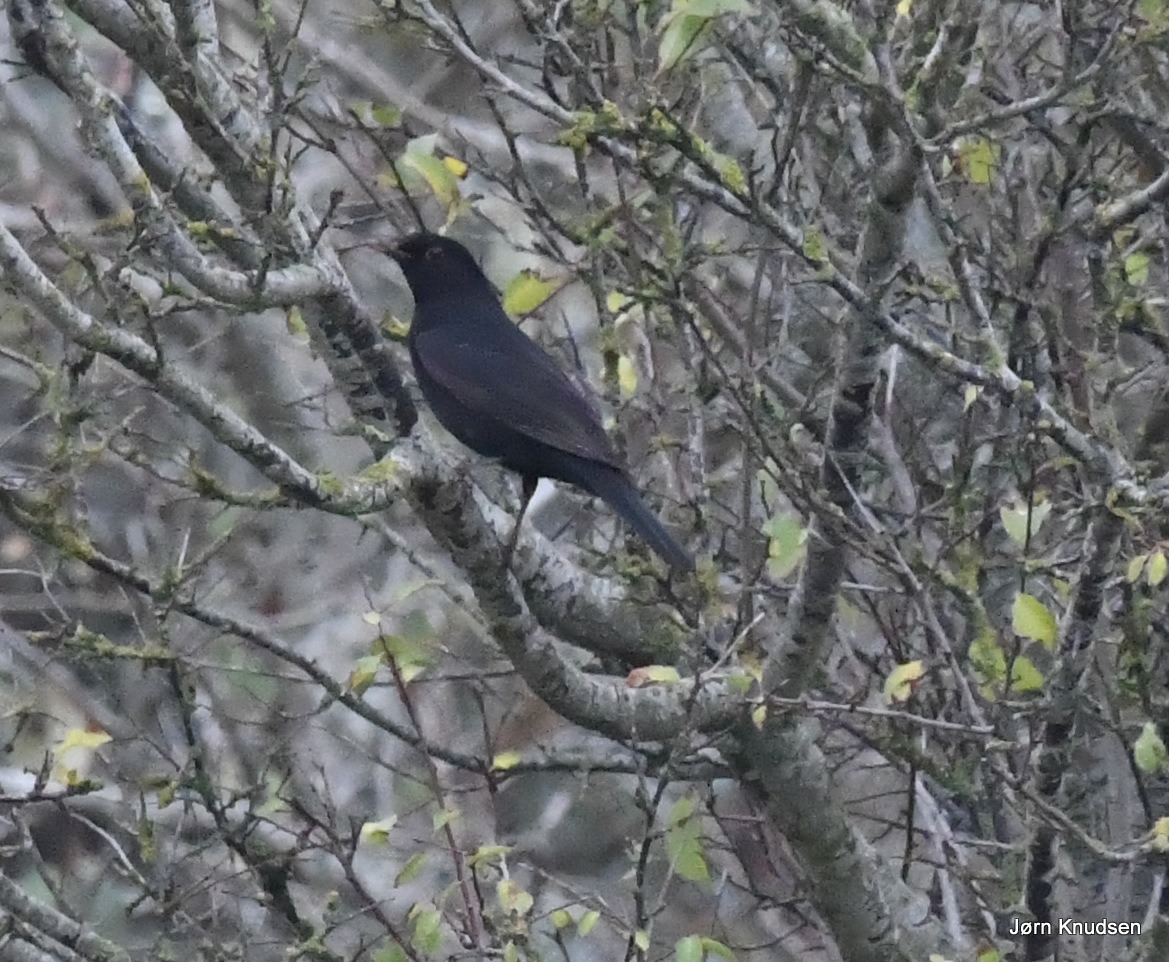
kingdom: Animalia
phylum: Chordata
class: Aves
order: Passeriformes
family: Turdidae
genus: Turdus
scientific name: Turdus merula
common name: Solsort
